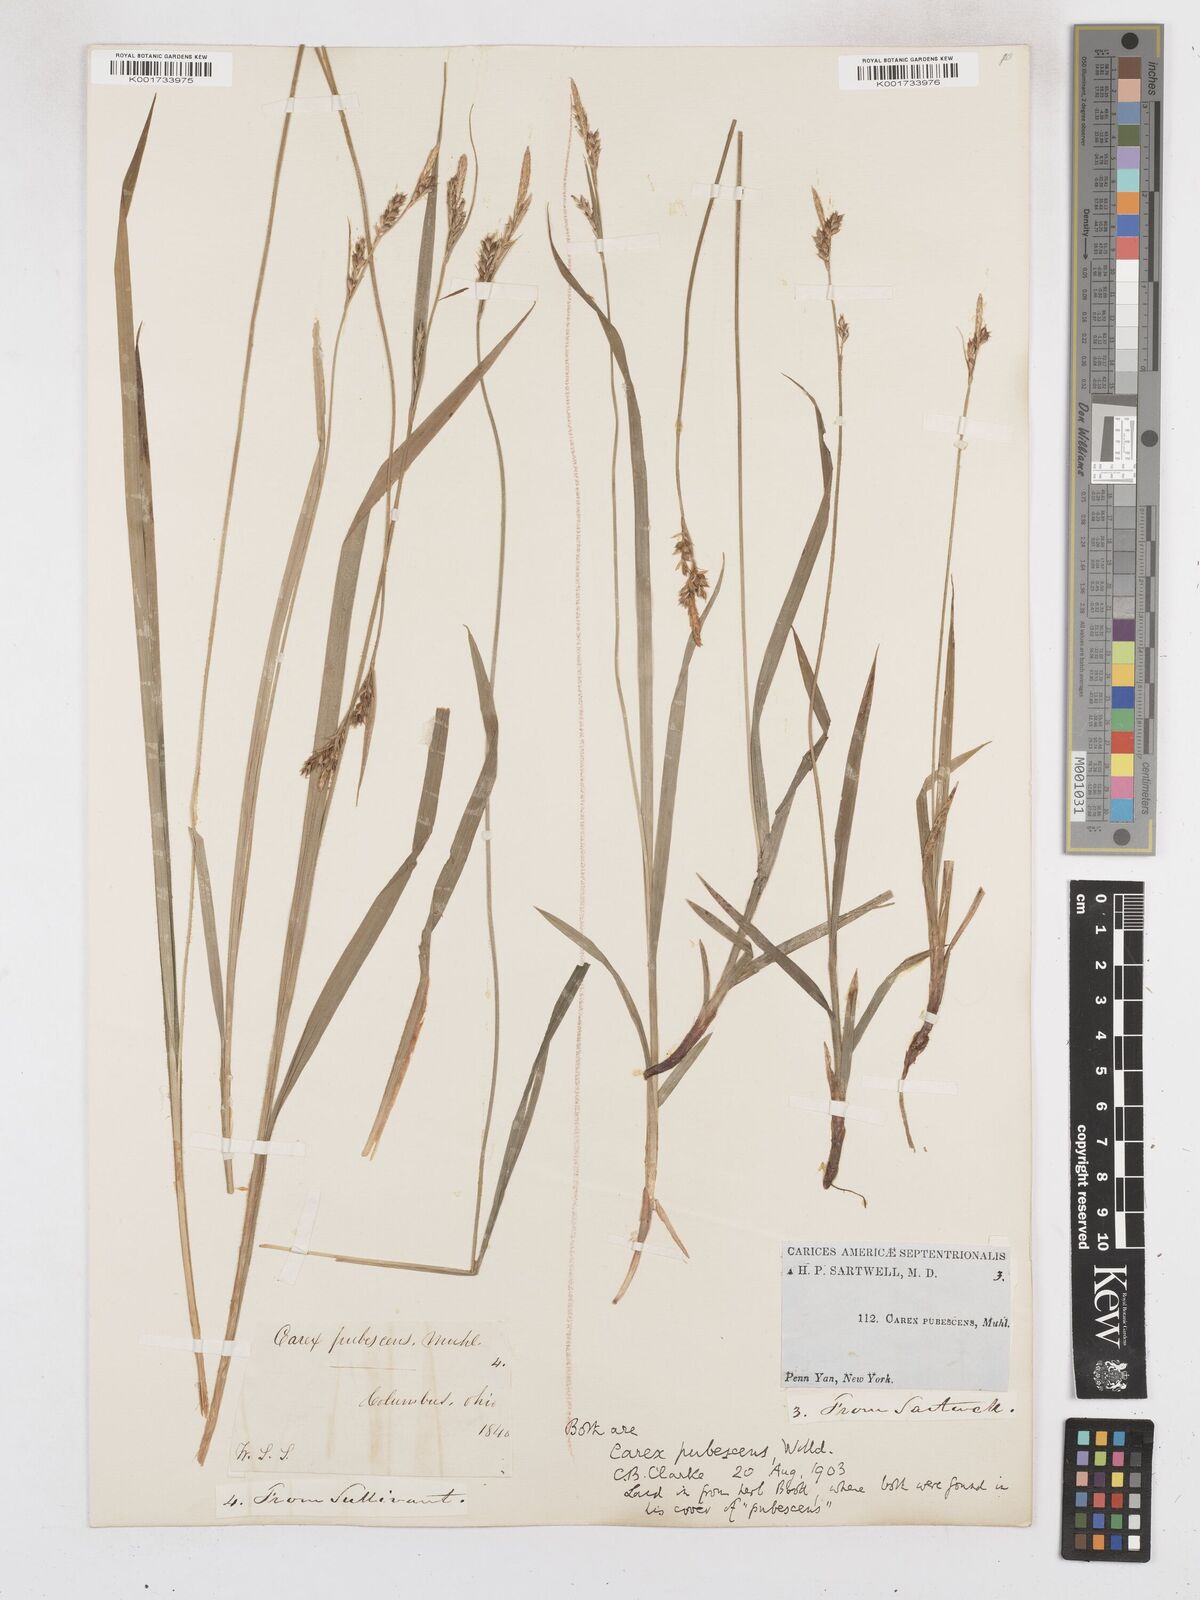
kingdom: Plantae
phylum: Tracheophyta
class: Liliopsida
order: Poales
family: Cyperaceae
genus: Carex
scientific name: Carex hirtifolia
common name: Hairy sedge
